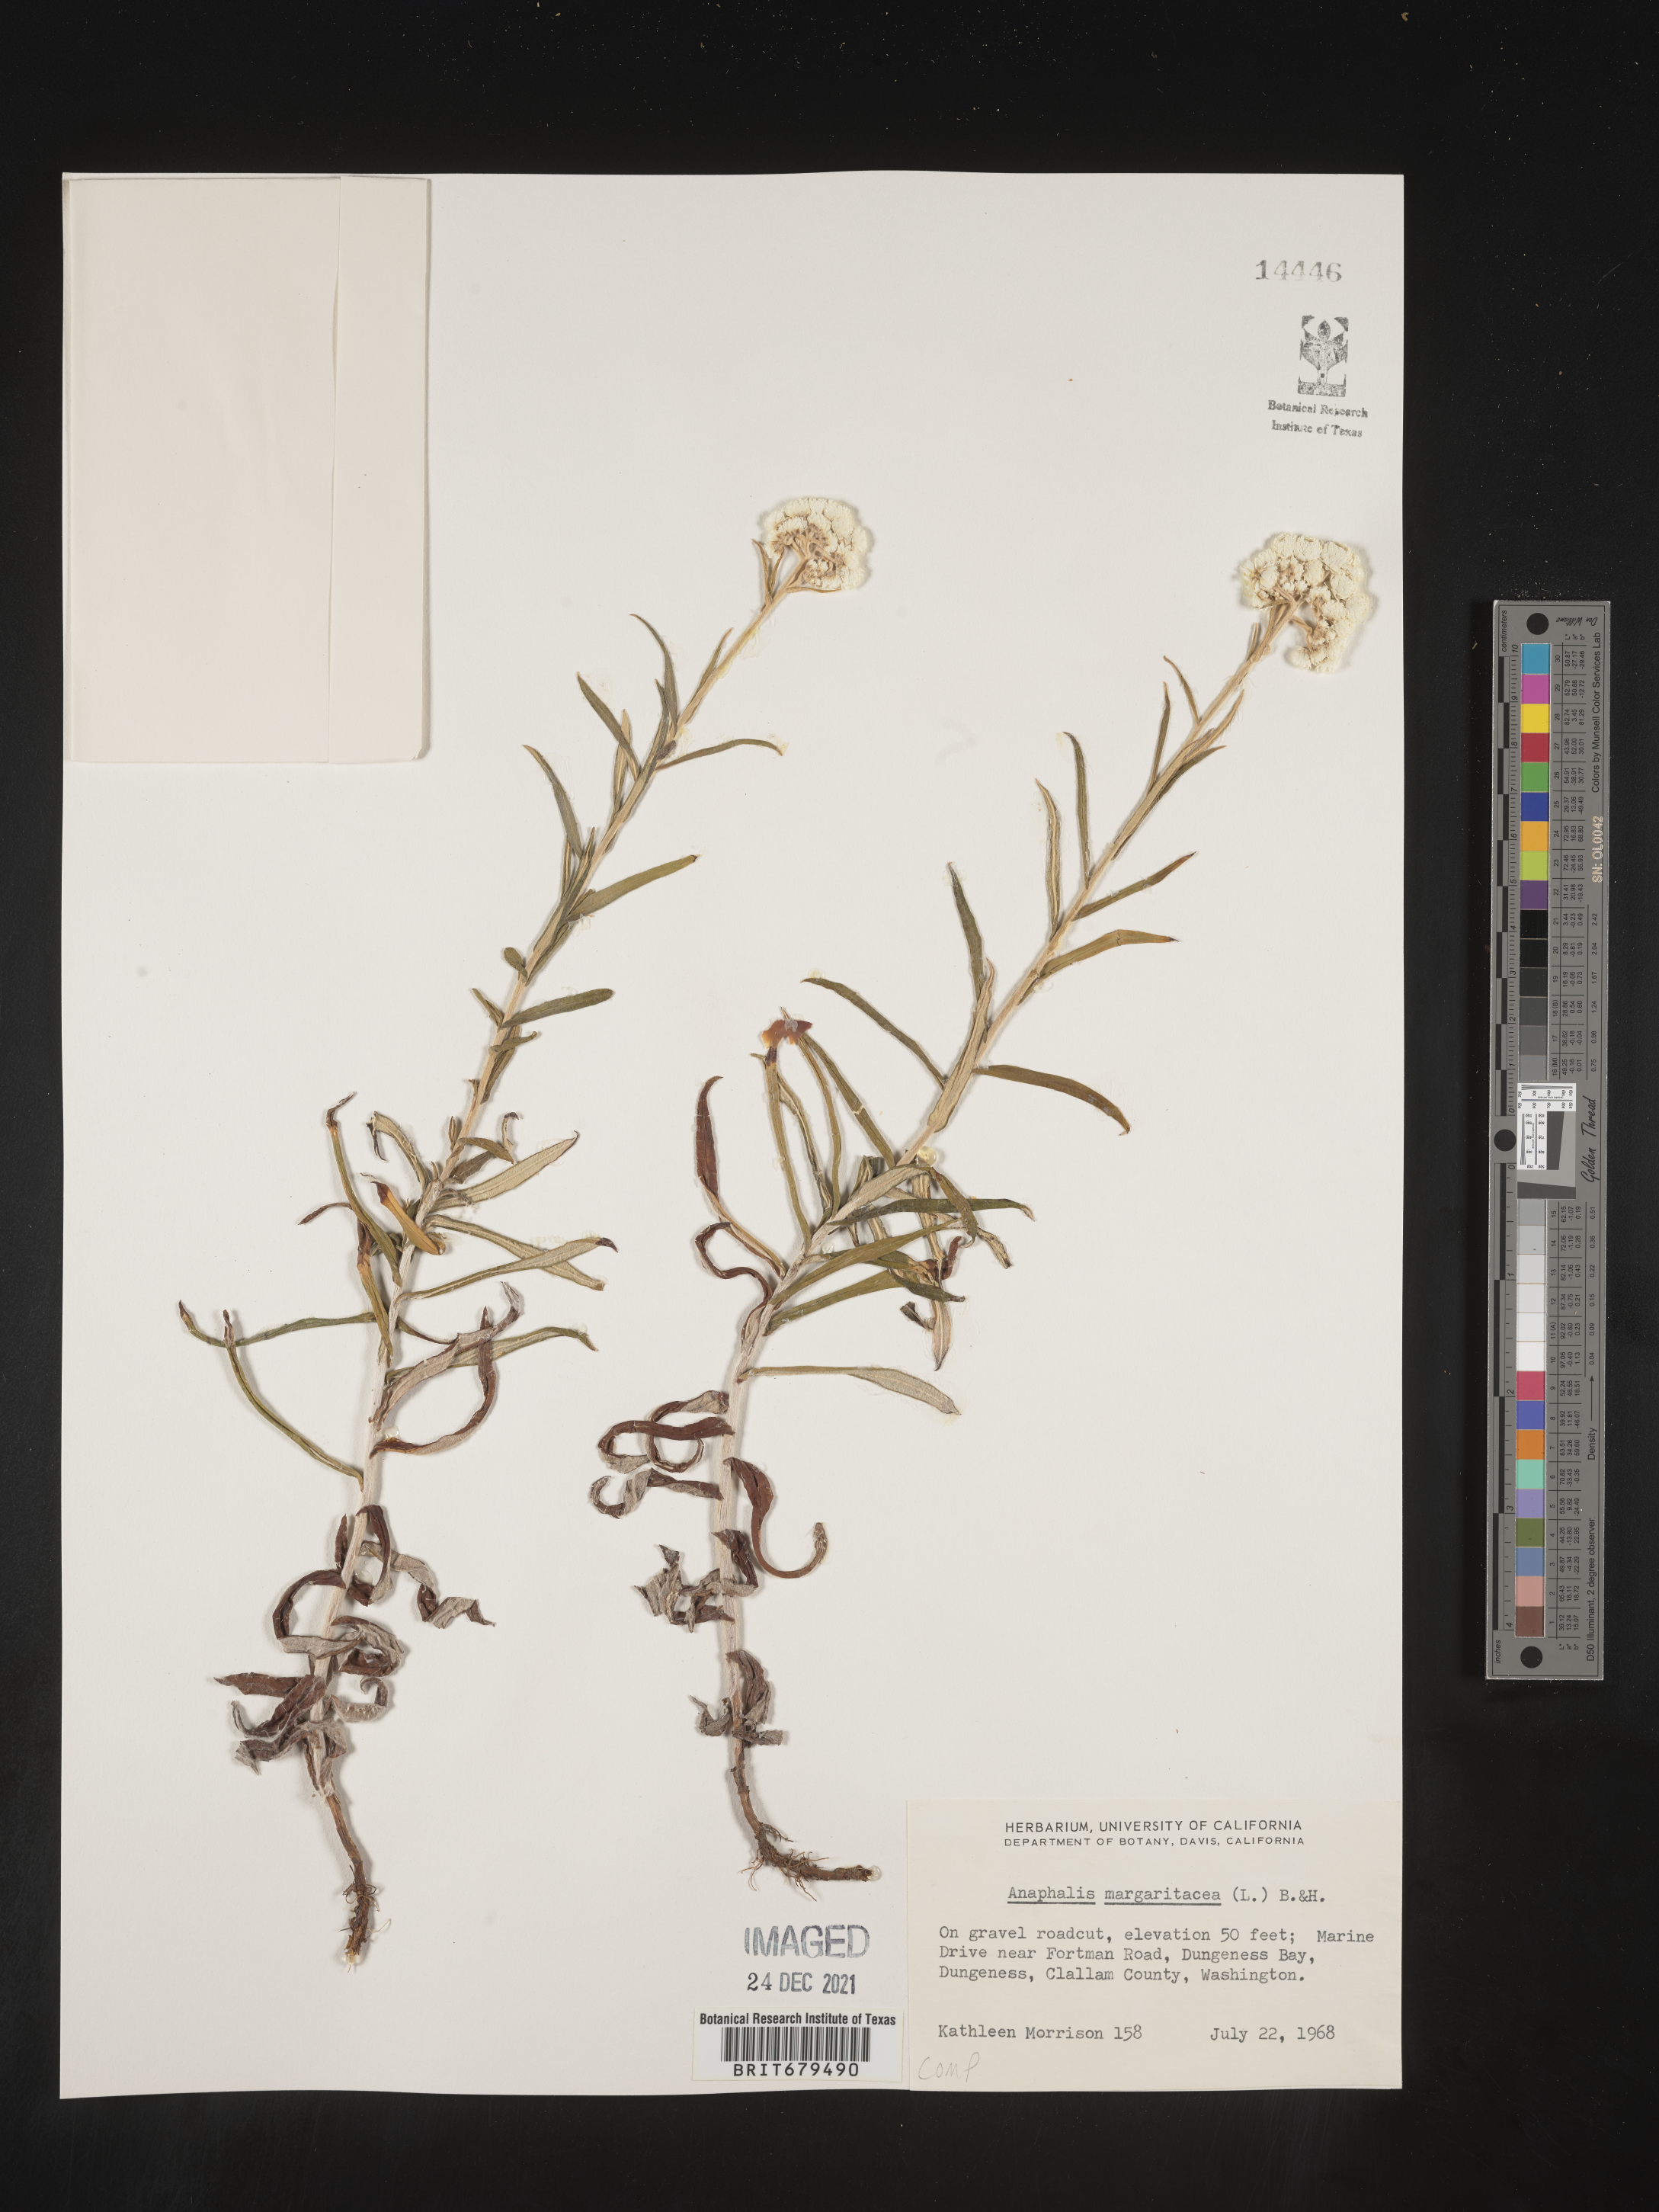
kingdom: Plantae
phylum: Tracheophyta
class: Magnoliopsida
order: Asterales
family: Asteraceae
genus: Anaphalis
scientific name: Anaphalis margaritacea
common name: Pearly everlasting
